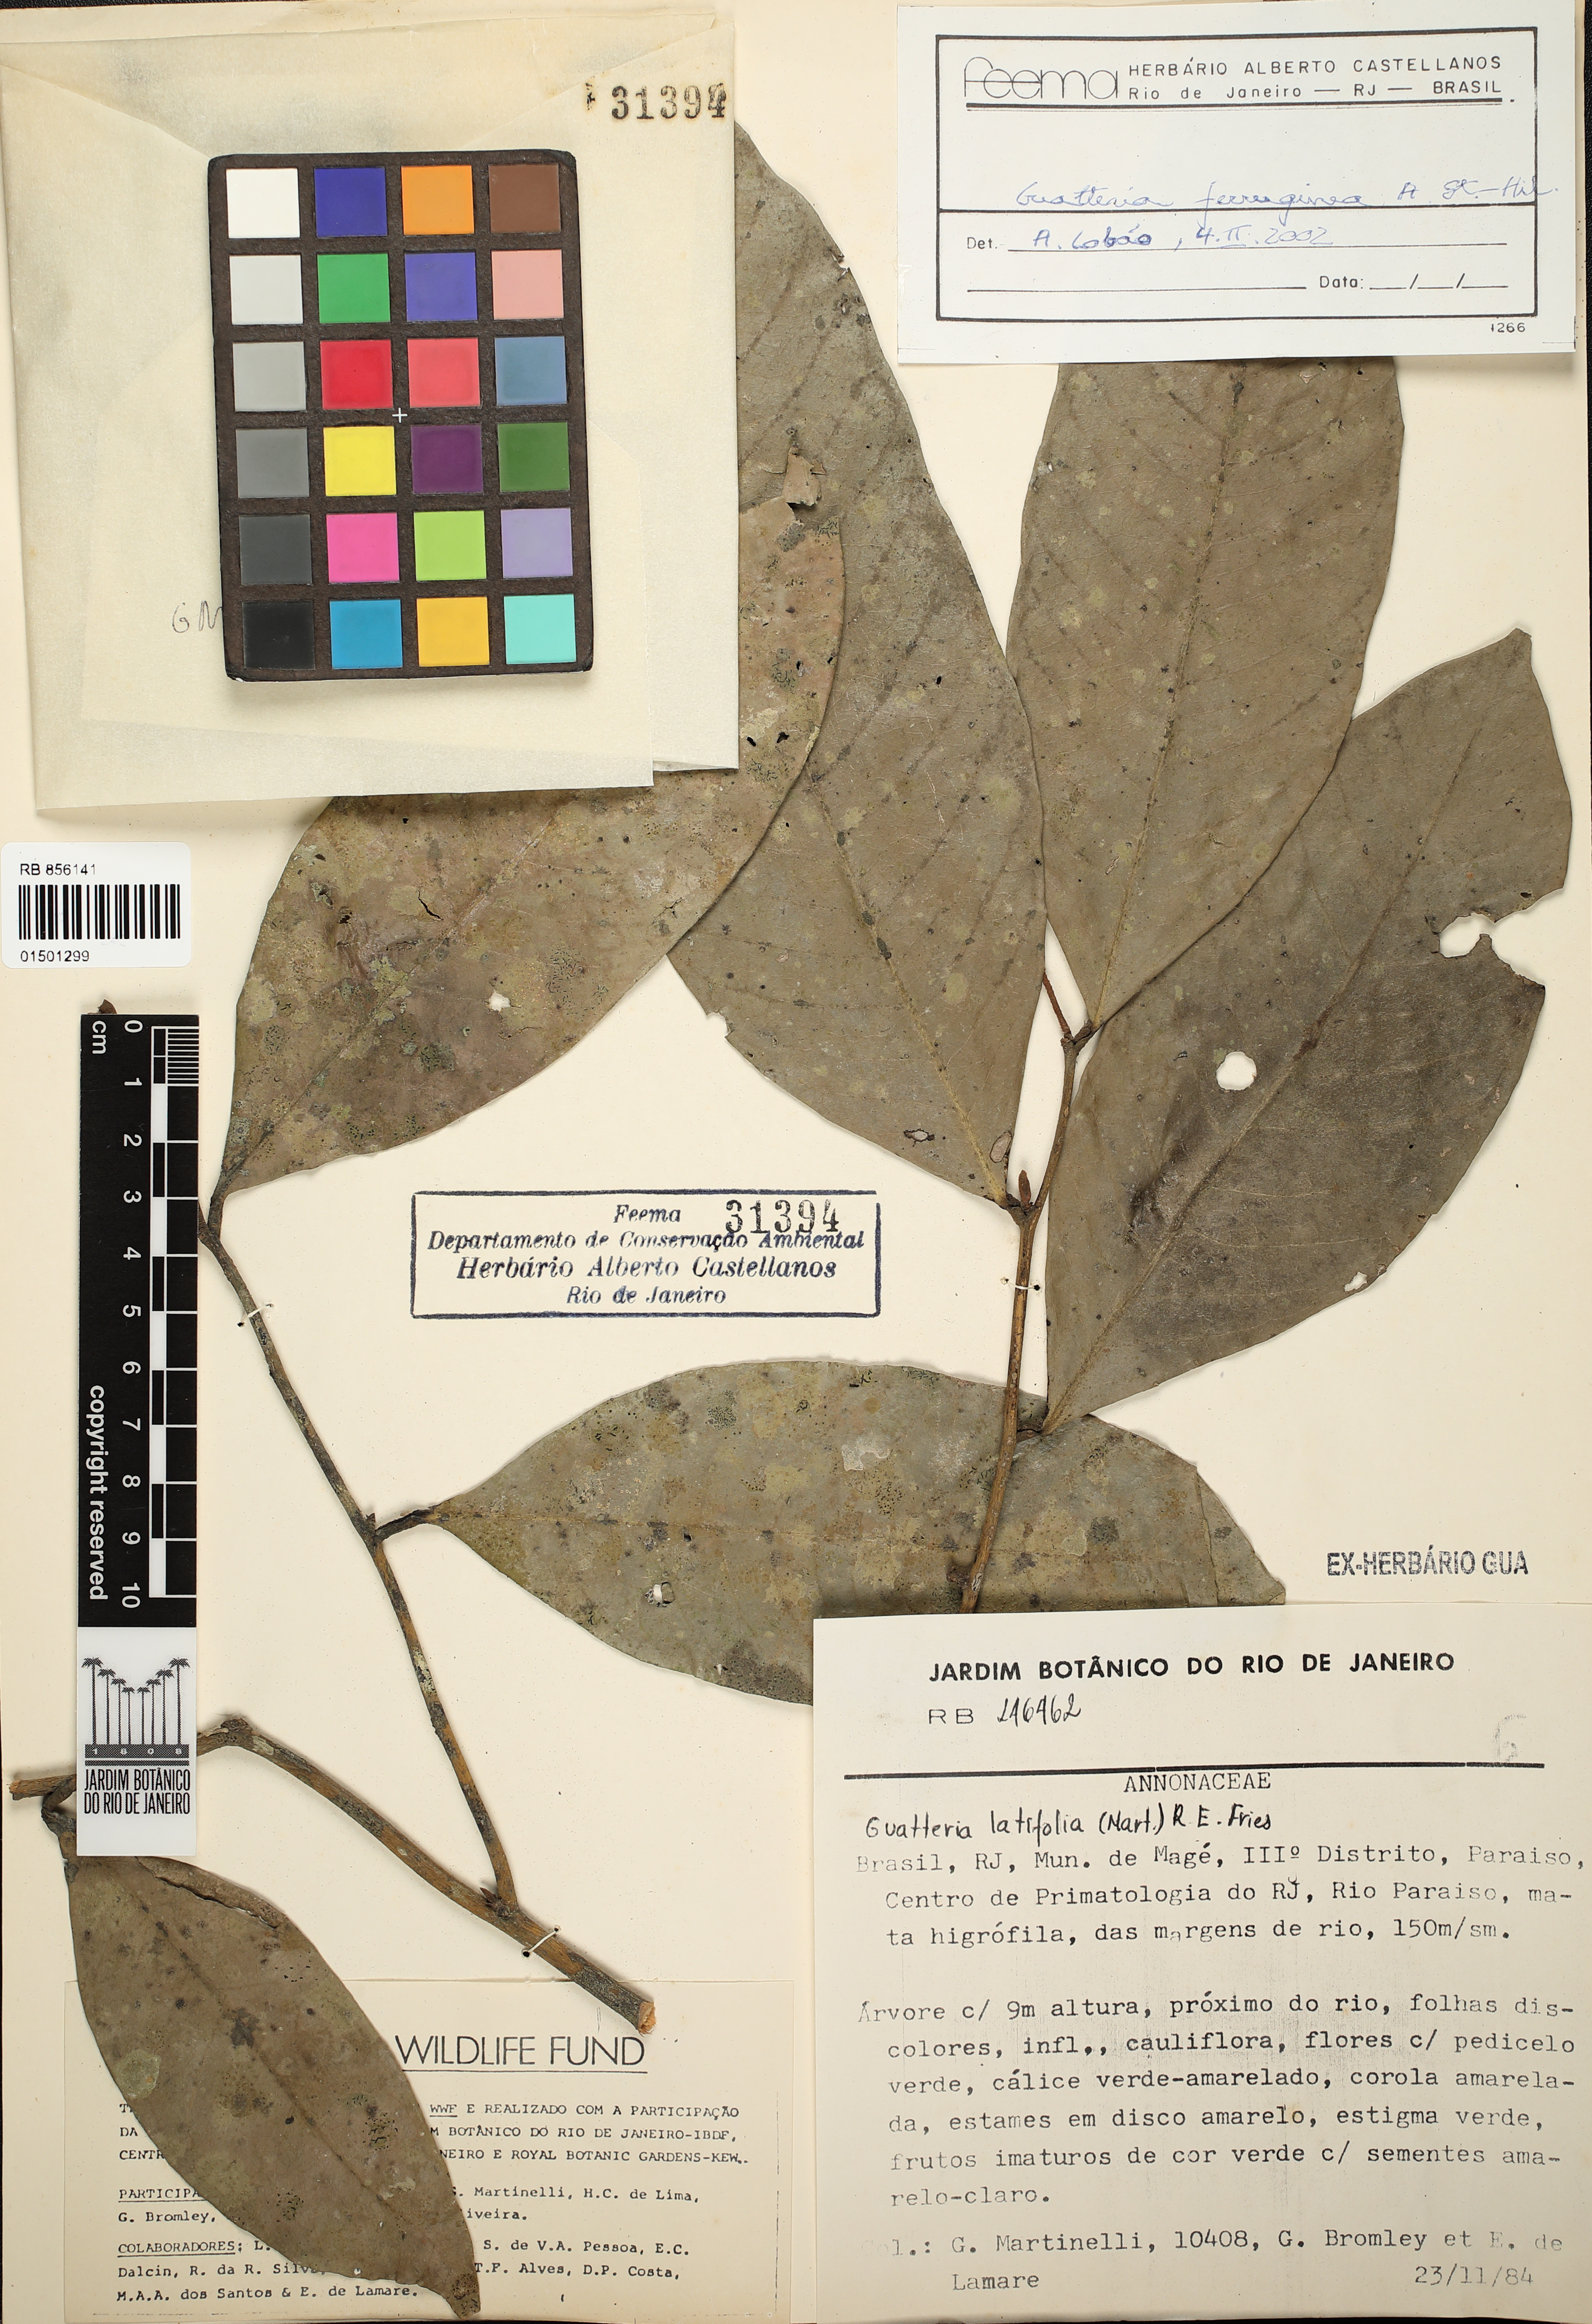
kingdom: Plantae
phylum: Tracheophyta
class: Magnoliopsida
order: Magnoliales
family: Annonaceae
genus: Guatteria
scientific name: Guatteria ferruginea
